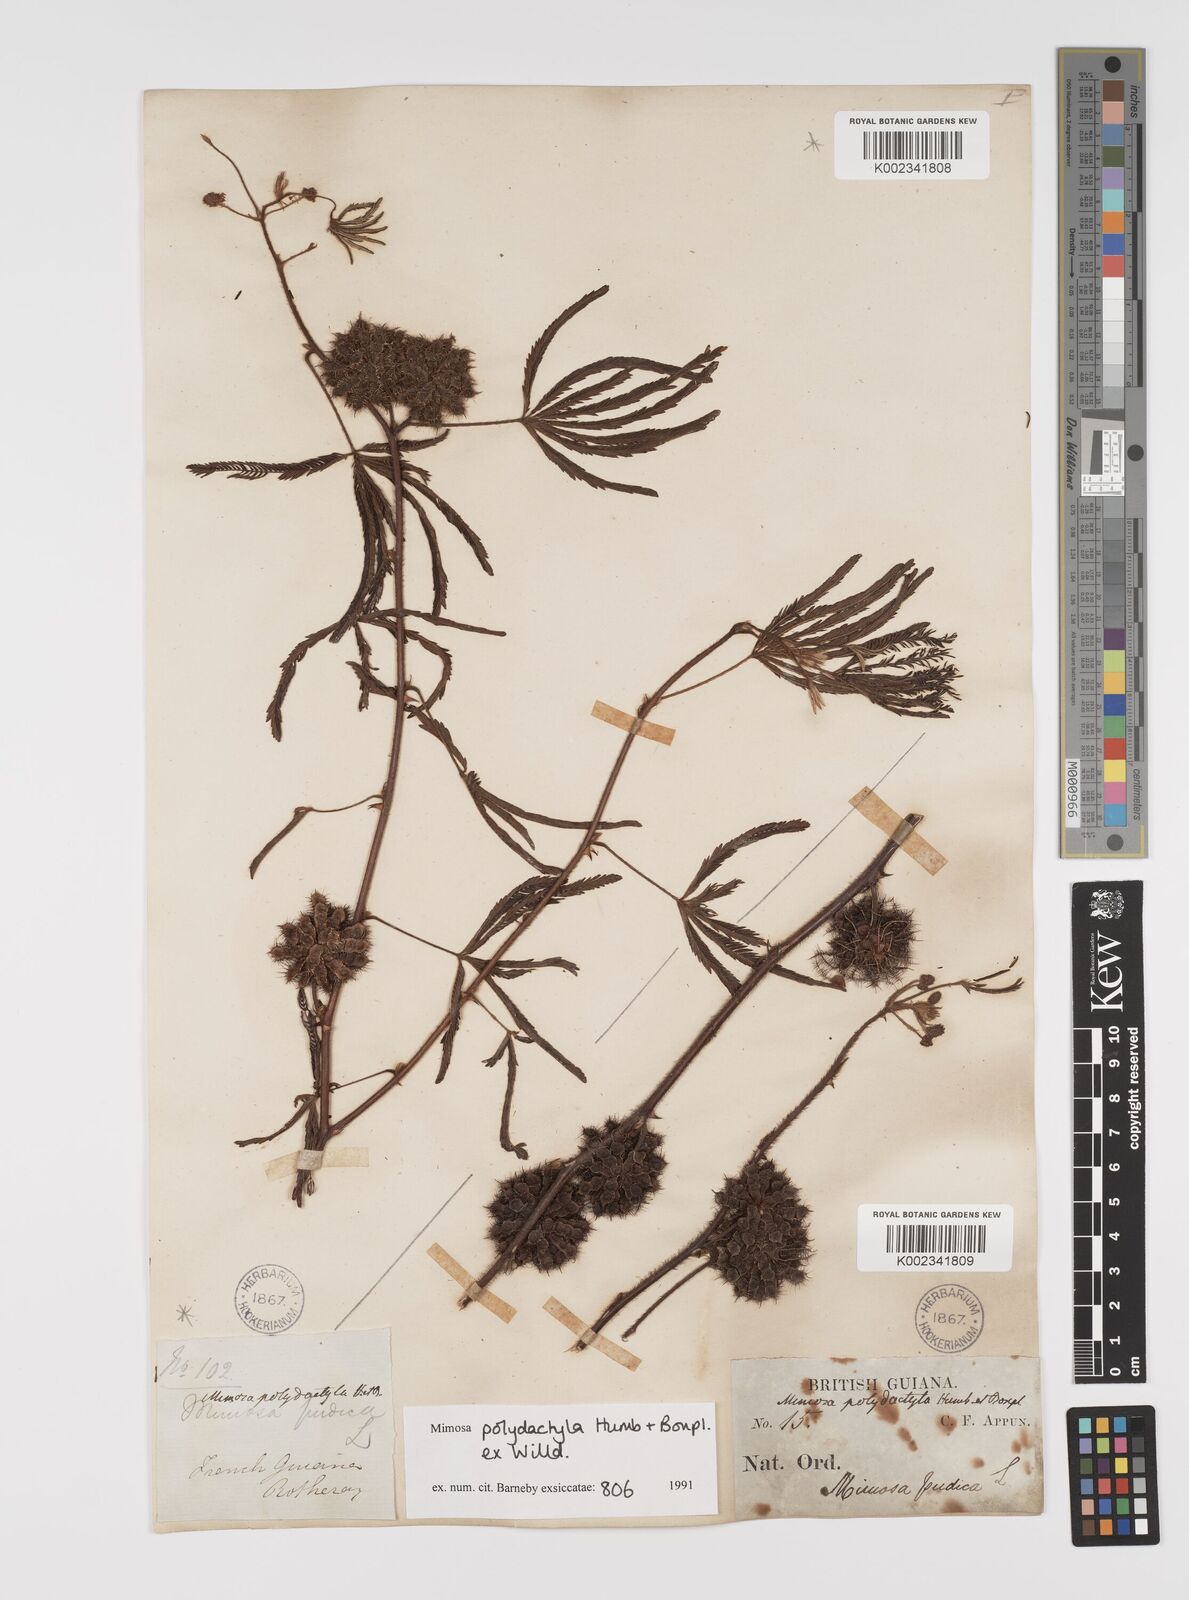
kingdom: Plantae
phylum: Tracheophyta
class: Magnoliopsida
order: Fabales
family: Fabaceae
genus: Mimosa
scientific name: Mimosa polydactyla
